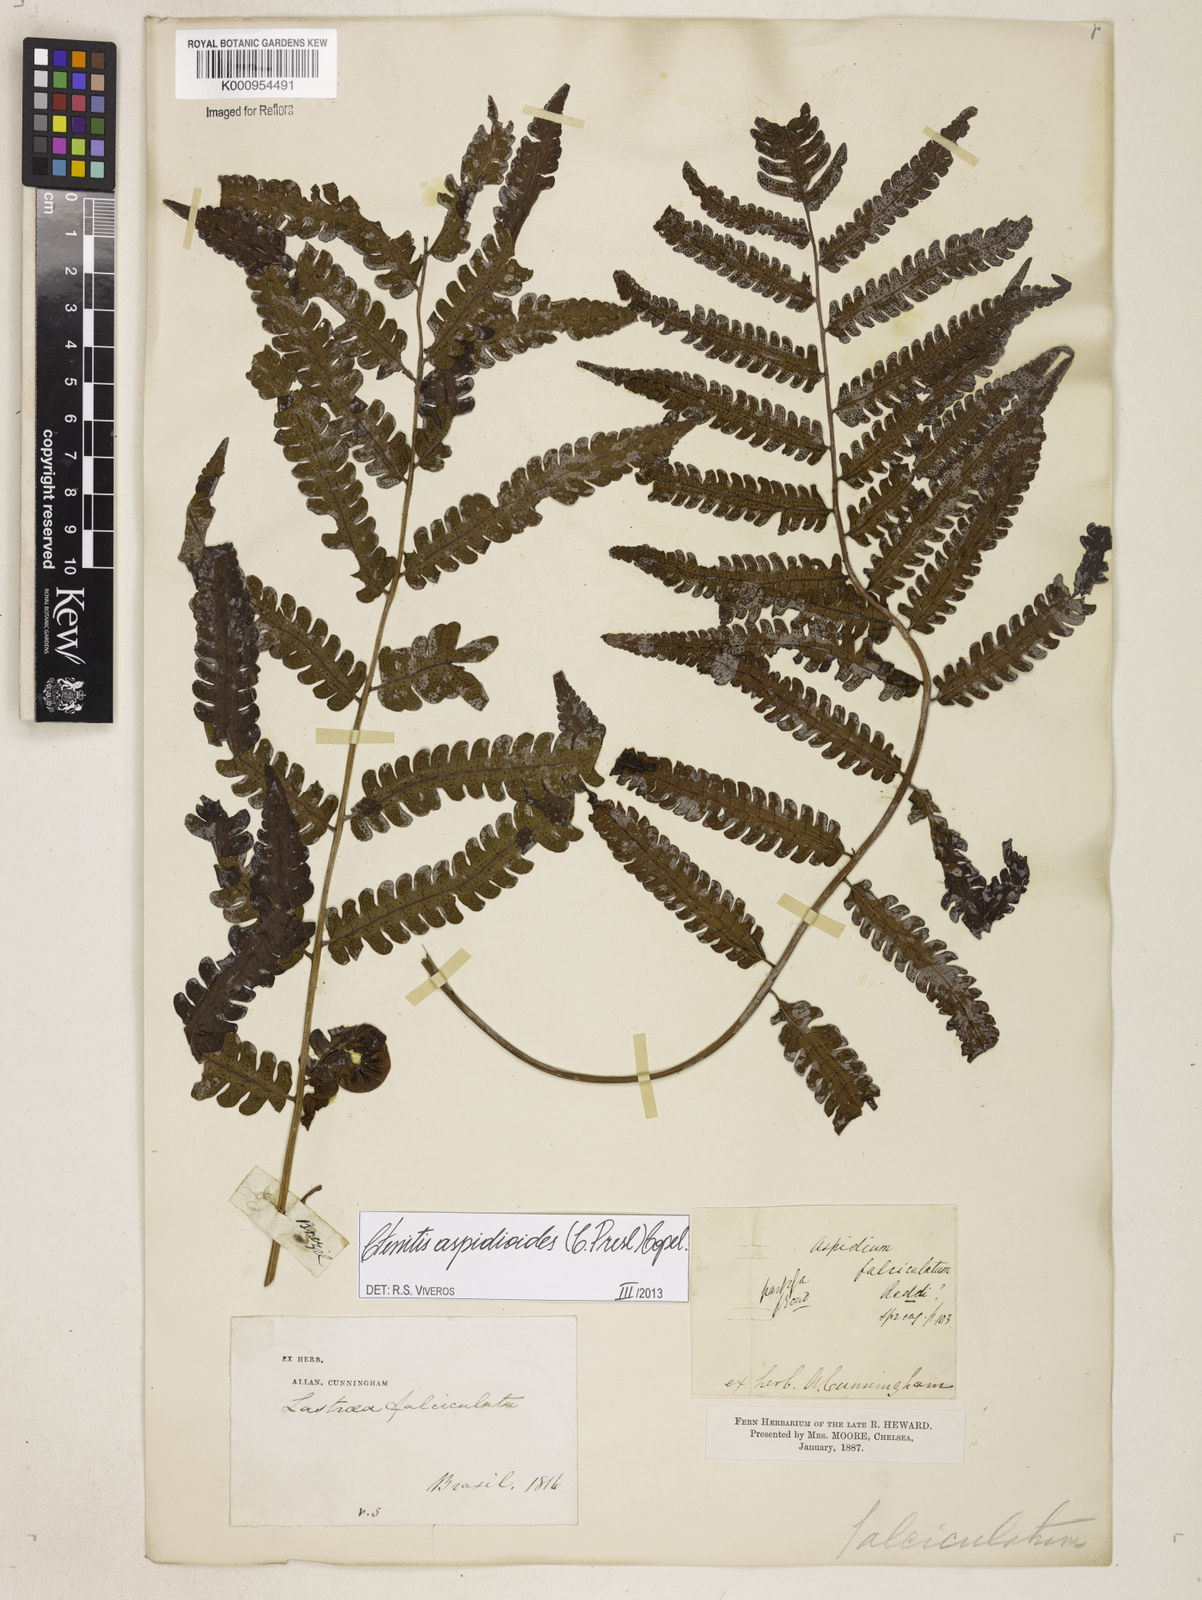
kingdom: Plantae
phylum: Tracheophyta
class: Polypodiopsida
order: Polypodiales
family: Dryopteridaceae
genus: Ctenitis
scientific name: Ctenitis aspidioides
